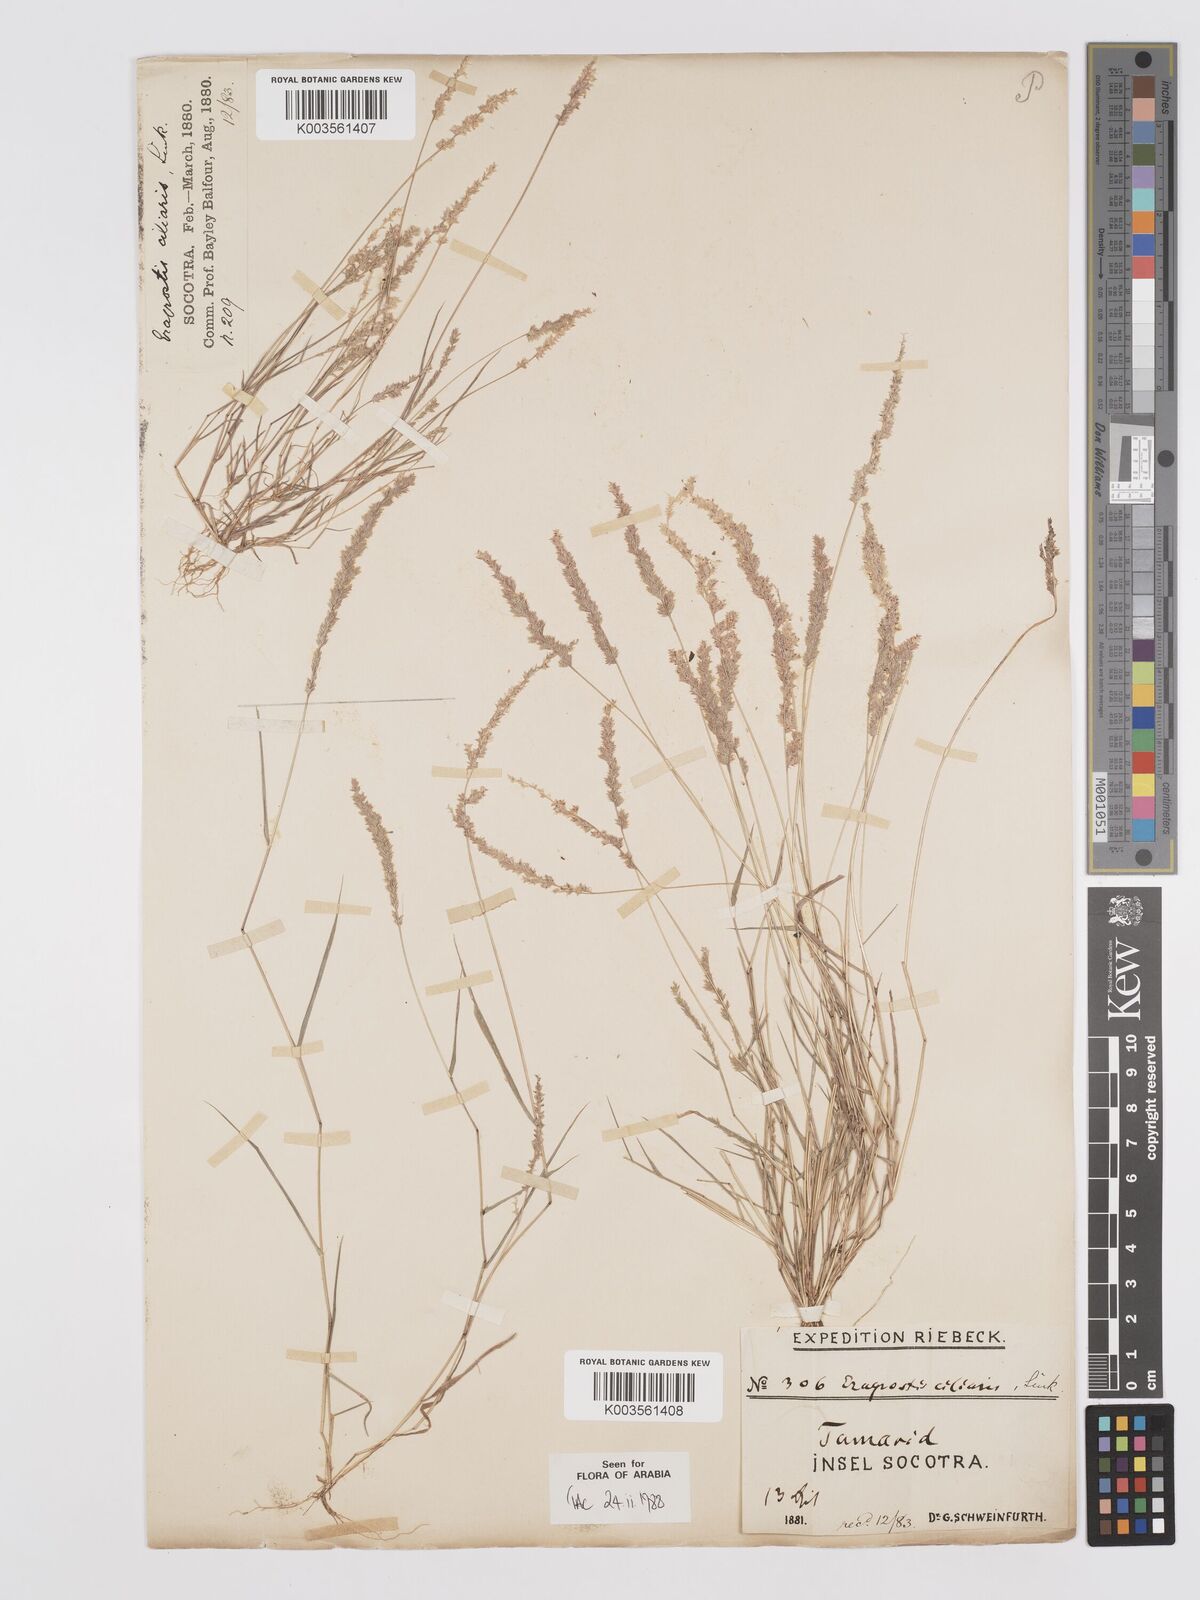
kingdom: Plantae
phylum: Tracheophyta
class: Liliopsida
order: Poales
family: Poaceae
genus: Eragrostis
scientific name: Eragrostis ciliaris
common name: Gophertail lovegrass
